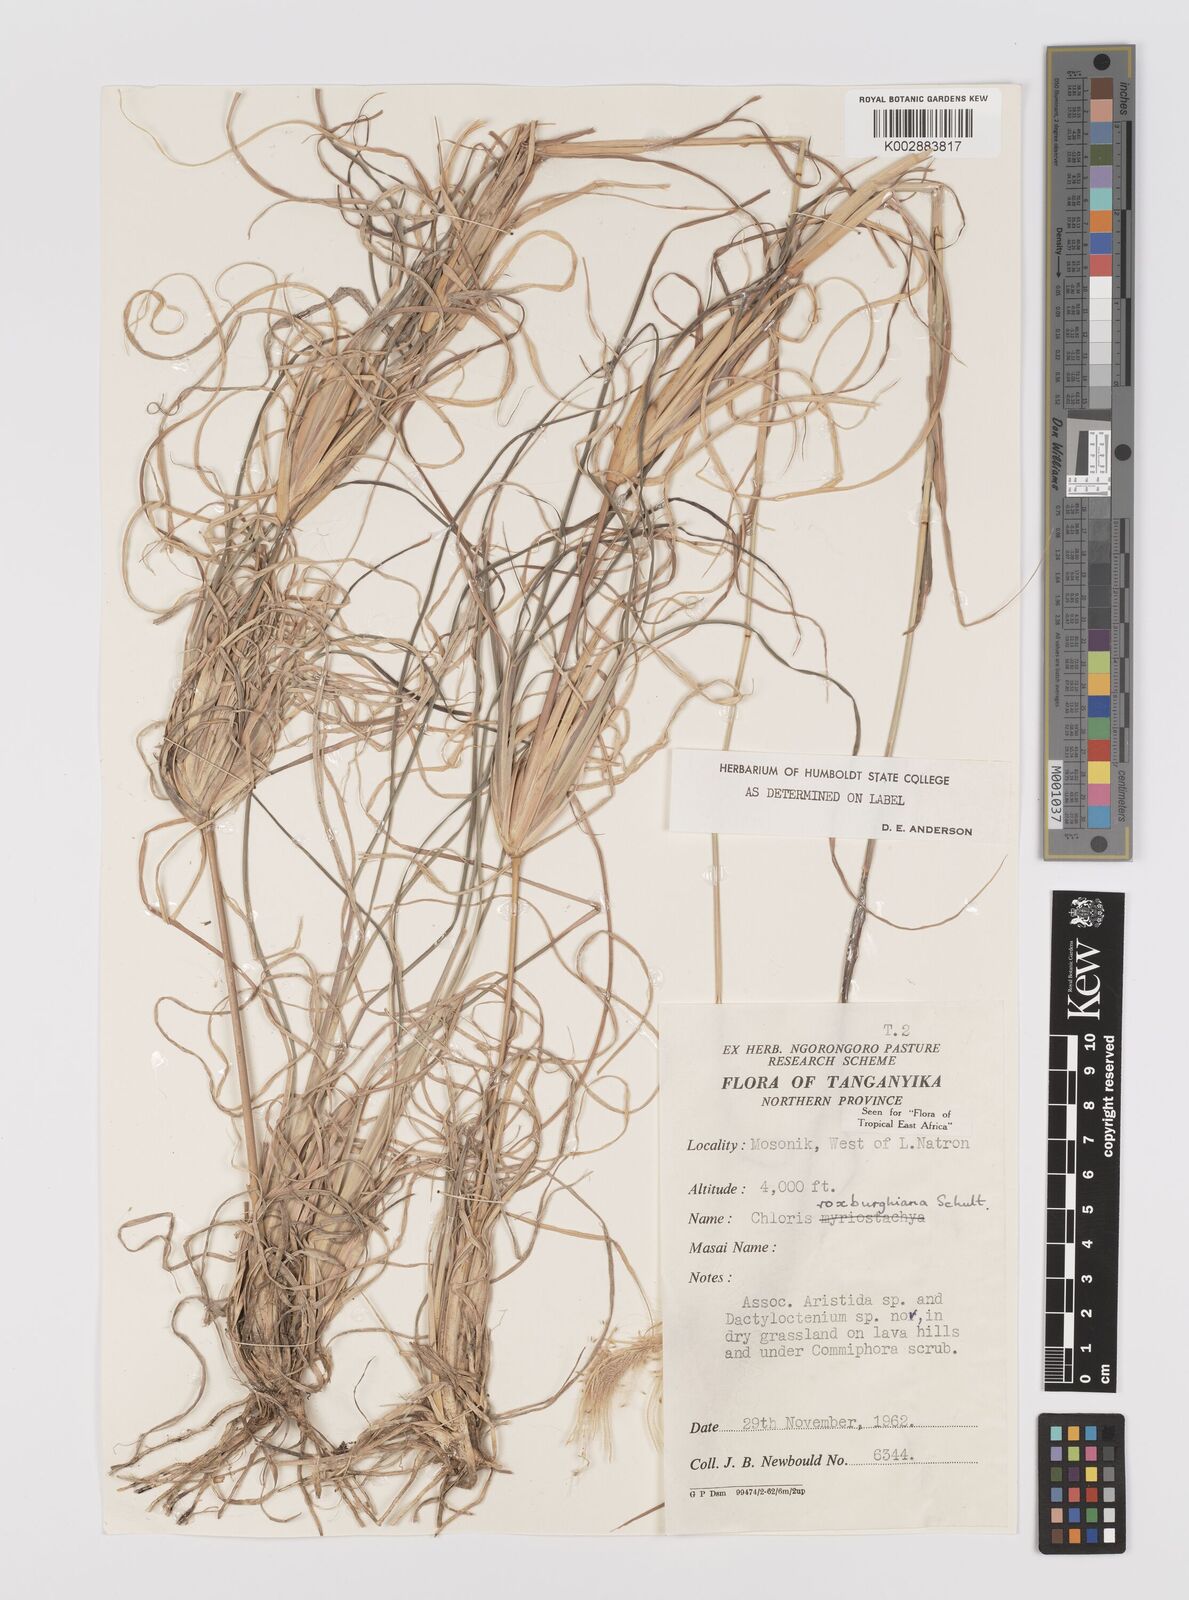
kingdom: Plantae
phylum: Tracheophyta
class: Liliopsida
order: Poales
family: Poaceae
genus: Tetrapogon
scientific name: Tetrapogon roxburghiana
